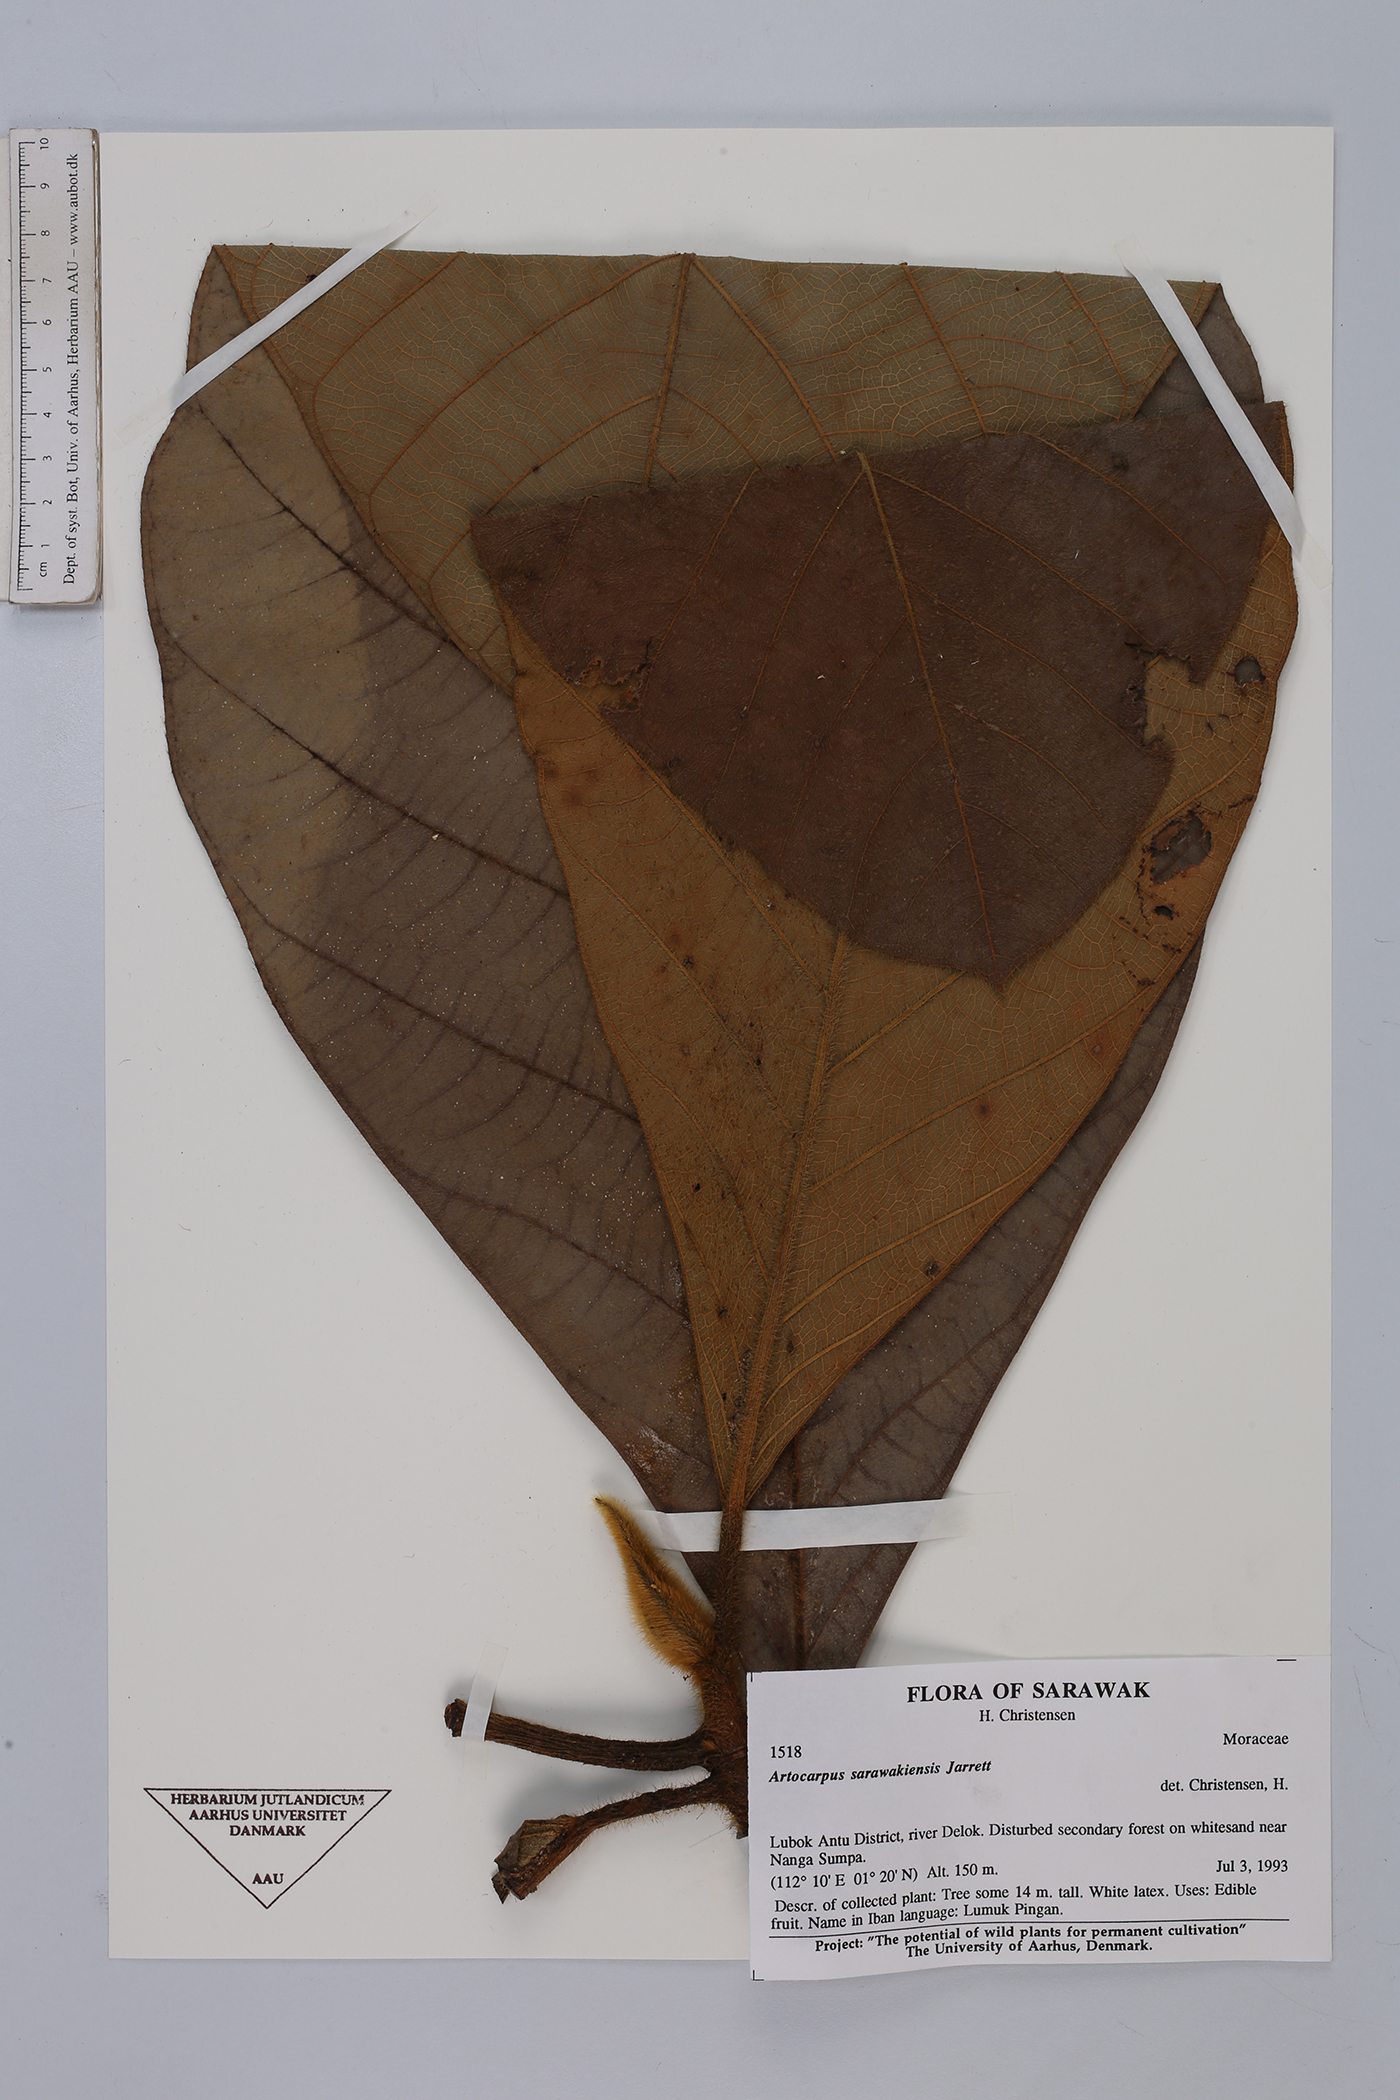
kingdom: Plantae
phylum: Tracheophyta
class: Magnoliopsida
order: Rosales
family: Moraceae
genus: Artocarpus
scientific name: Artocarpus sarawakensis
